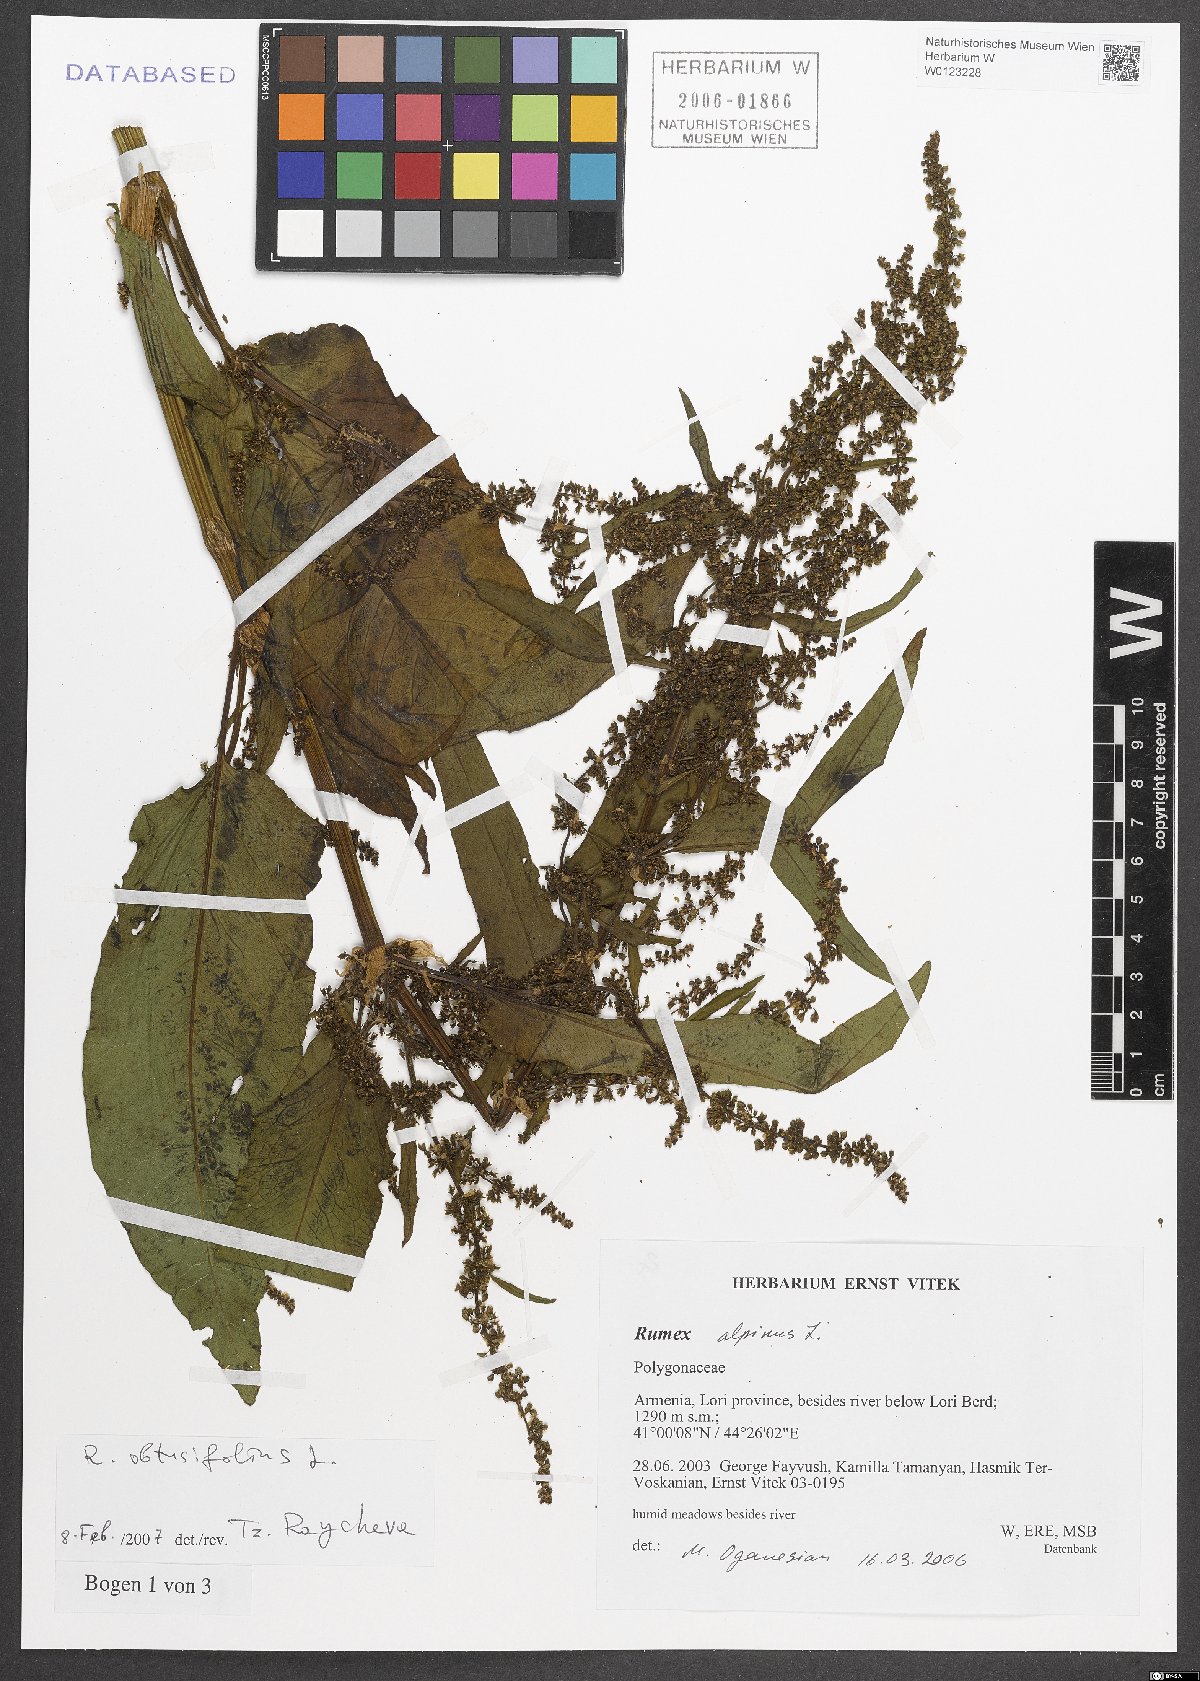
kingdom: Plantae
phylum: Tracheophyta
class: Magnoliopsida
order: Caryophyllales
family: Polygonaceae
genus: Rumex
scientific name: Rumex obtusifolius
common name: Bitter dock
